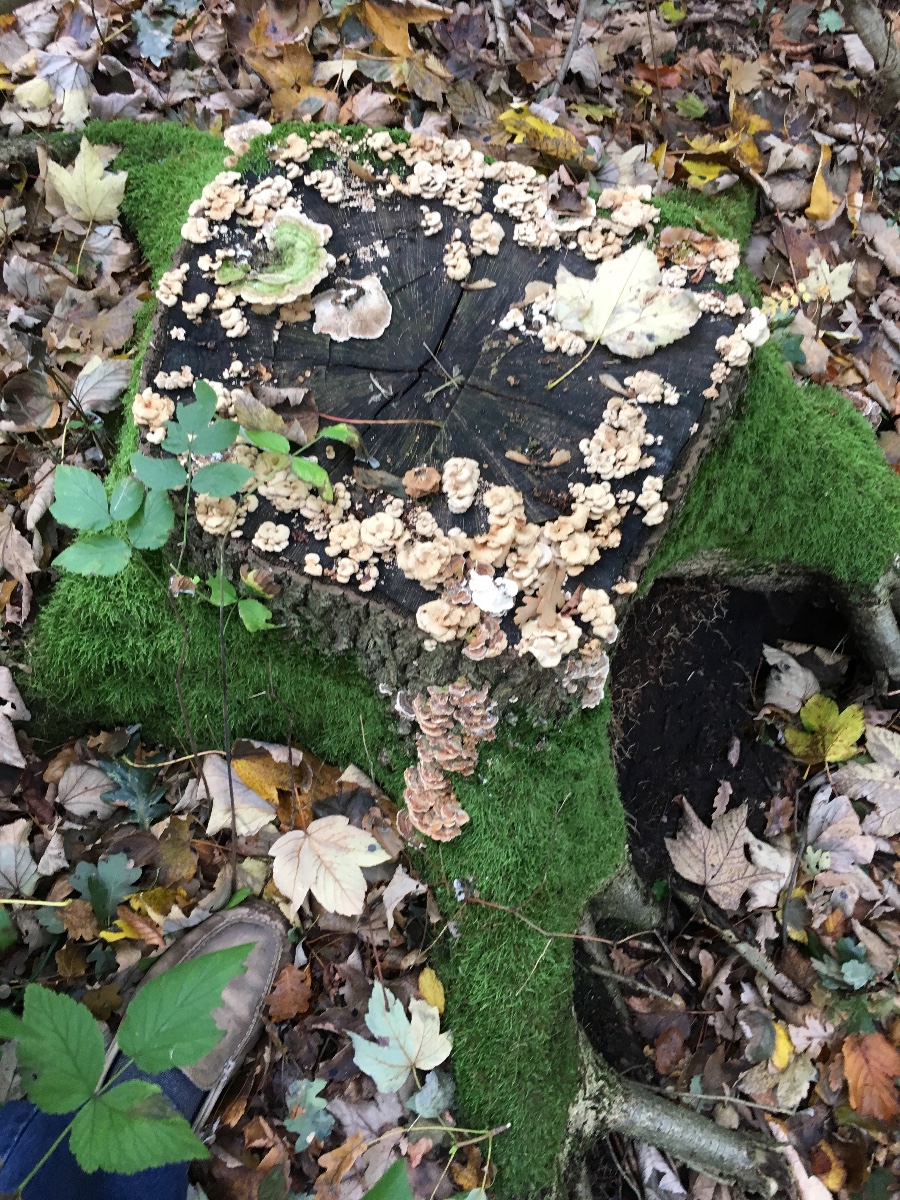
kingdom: Fungi
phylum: Basidiomycota
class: Agaricomycetes
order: Polyporales
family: Polyporaceae
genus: Lenzites
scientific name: Lenzites betulinus
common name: birke-læderporesvamp
